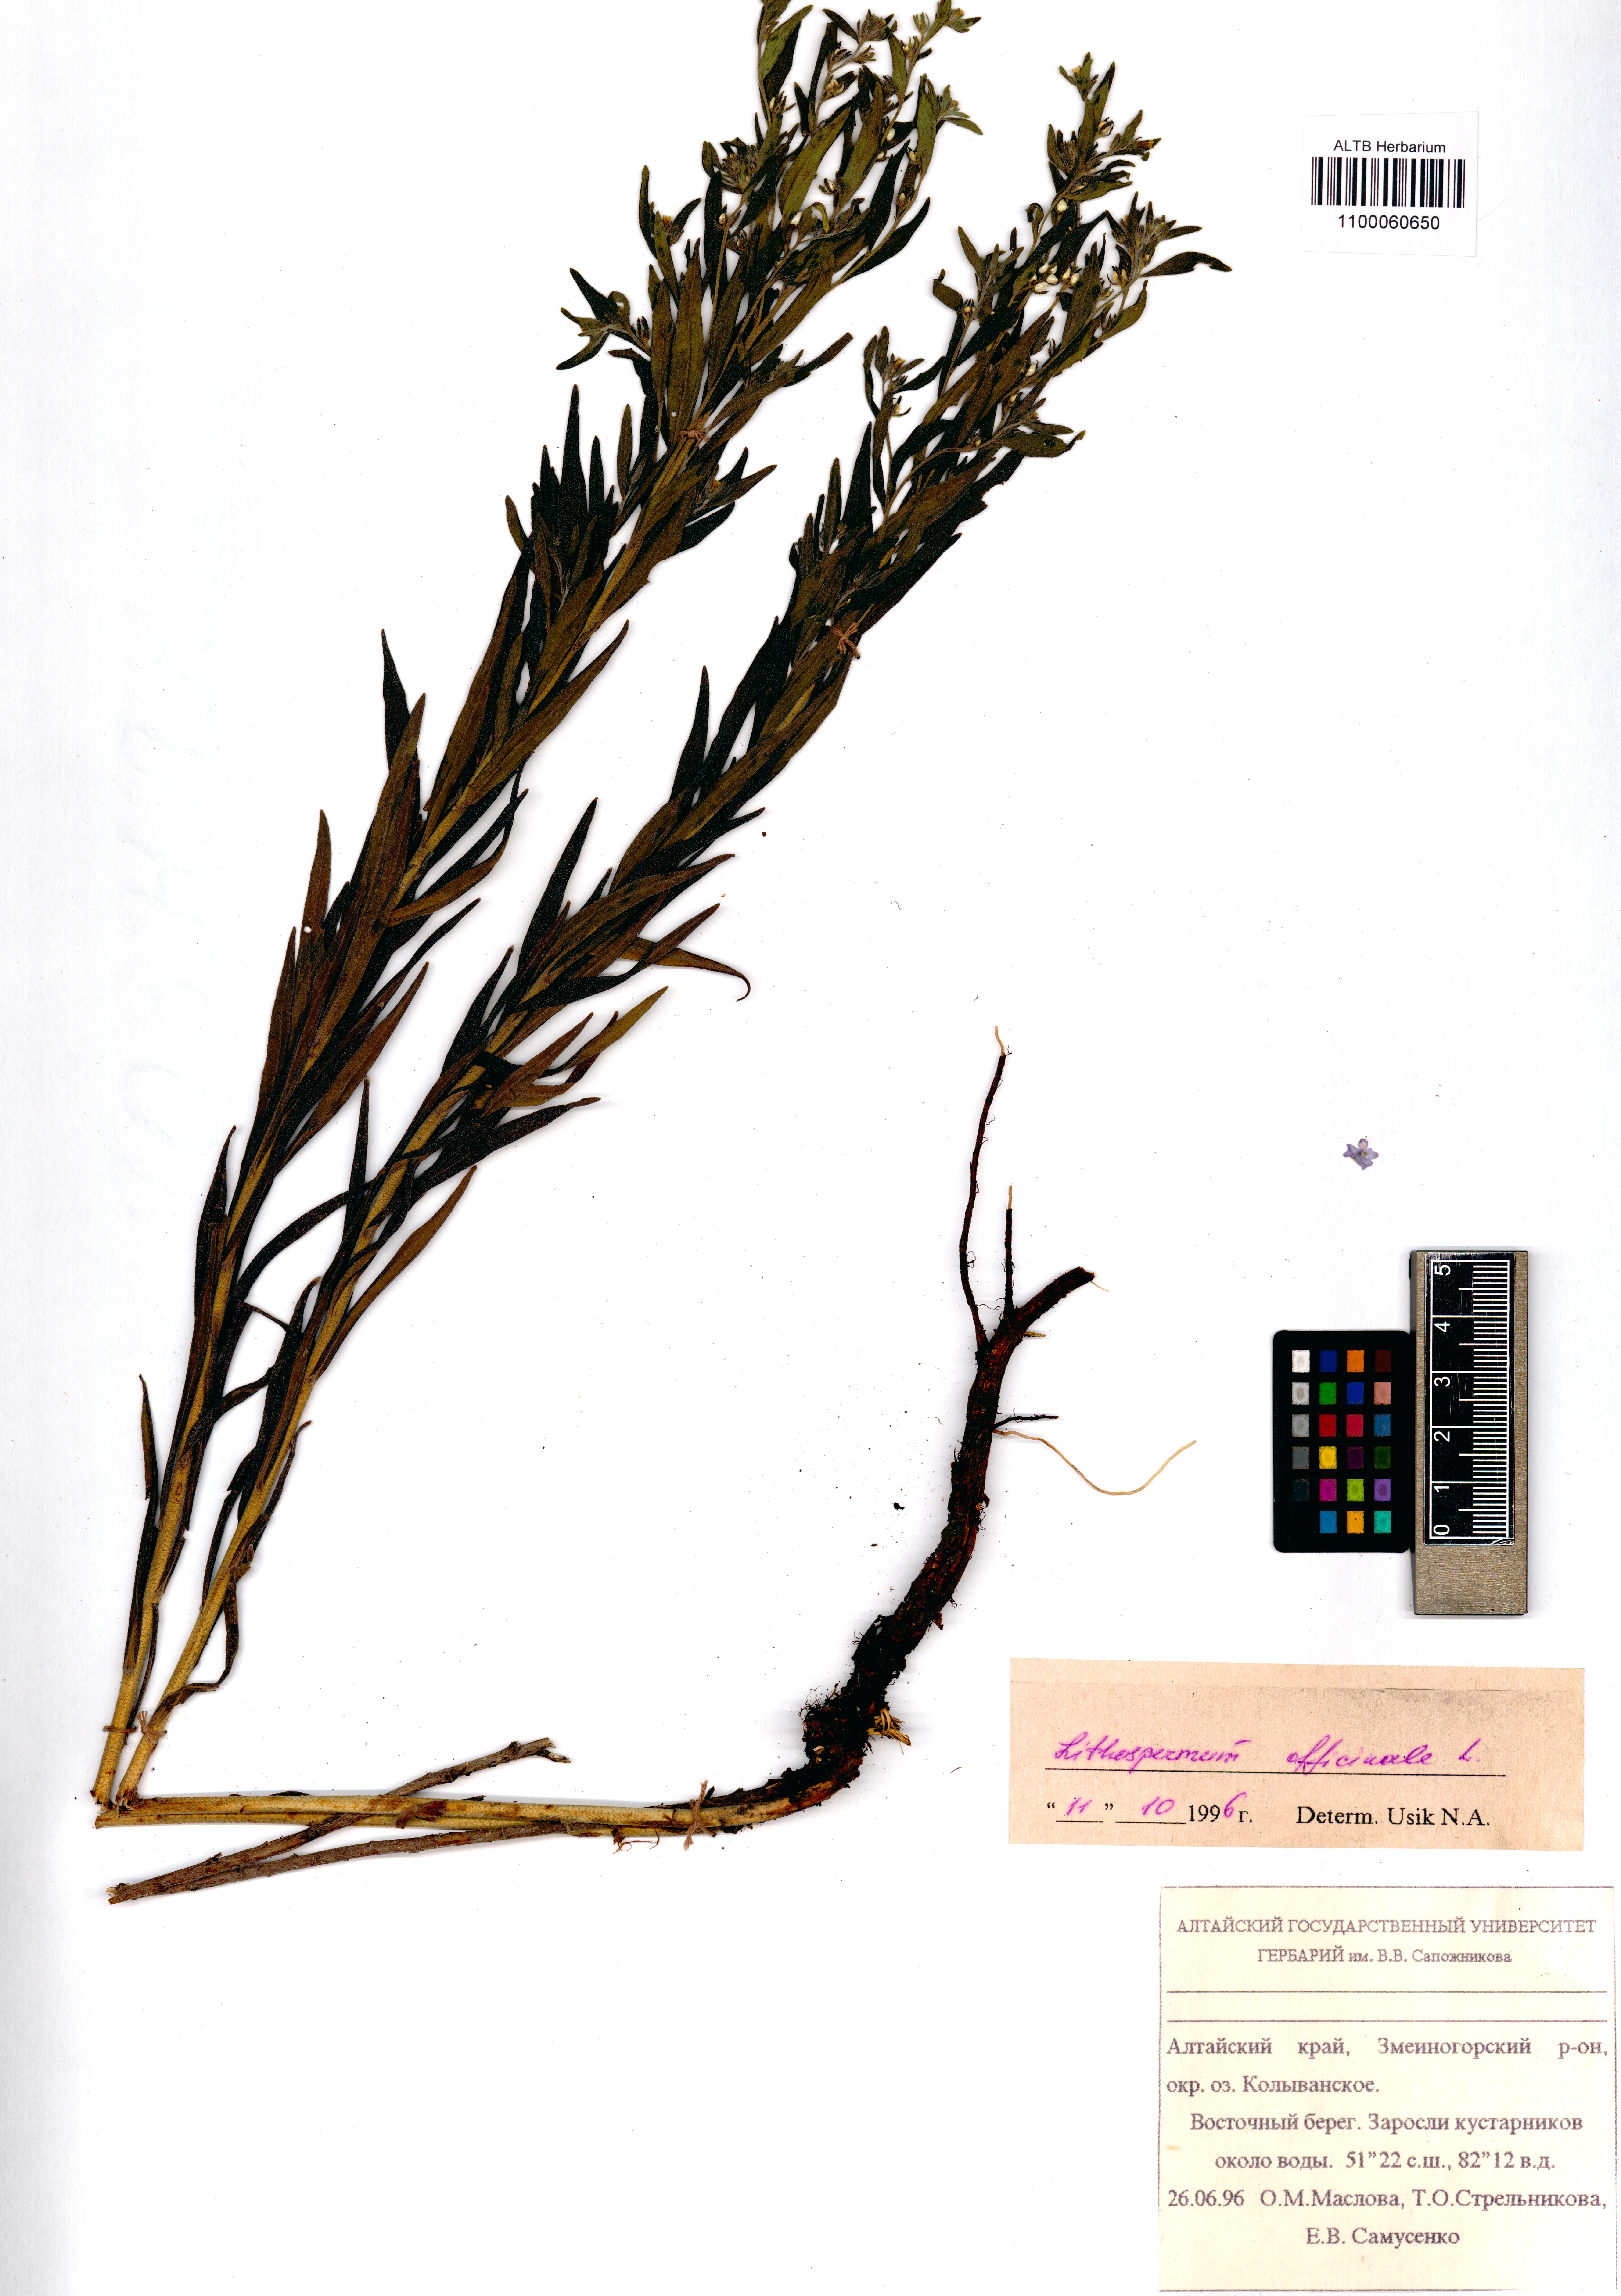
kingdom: Plantae
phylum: Tracheophyta
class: Magnoliopsida
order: Boraginales
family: Boraginaceae
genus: Lithospermum
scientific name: Lithospermum officinale
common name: Common gromwell
